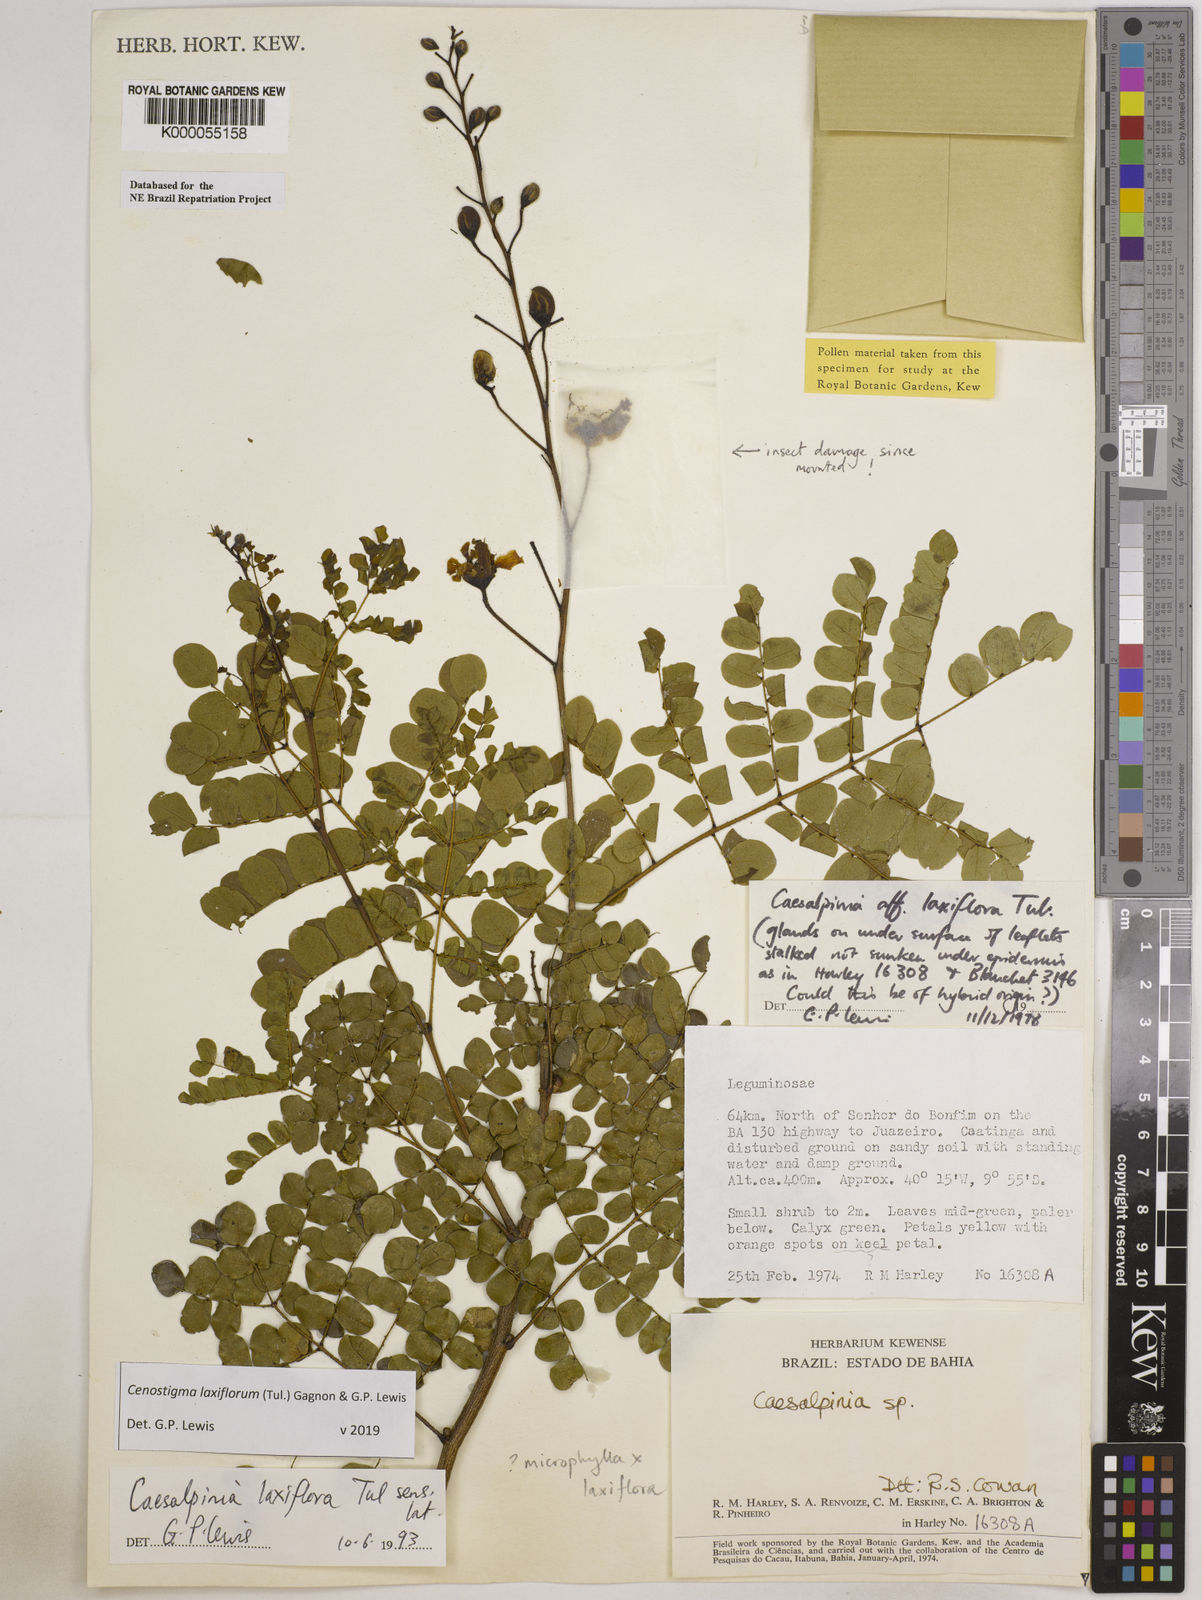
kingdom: Plantae
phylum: Tracheophyta
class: Magnoliopsida
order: Fabales
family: Fabaceae
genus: Cenostigma
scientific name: Cenostigma laxiflorum
